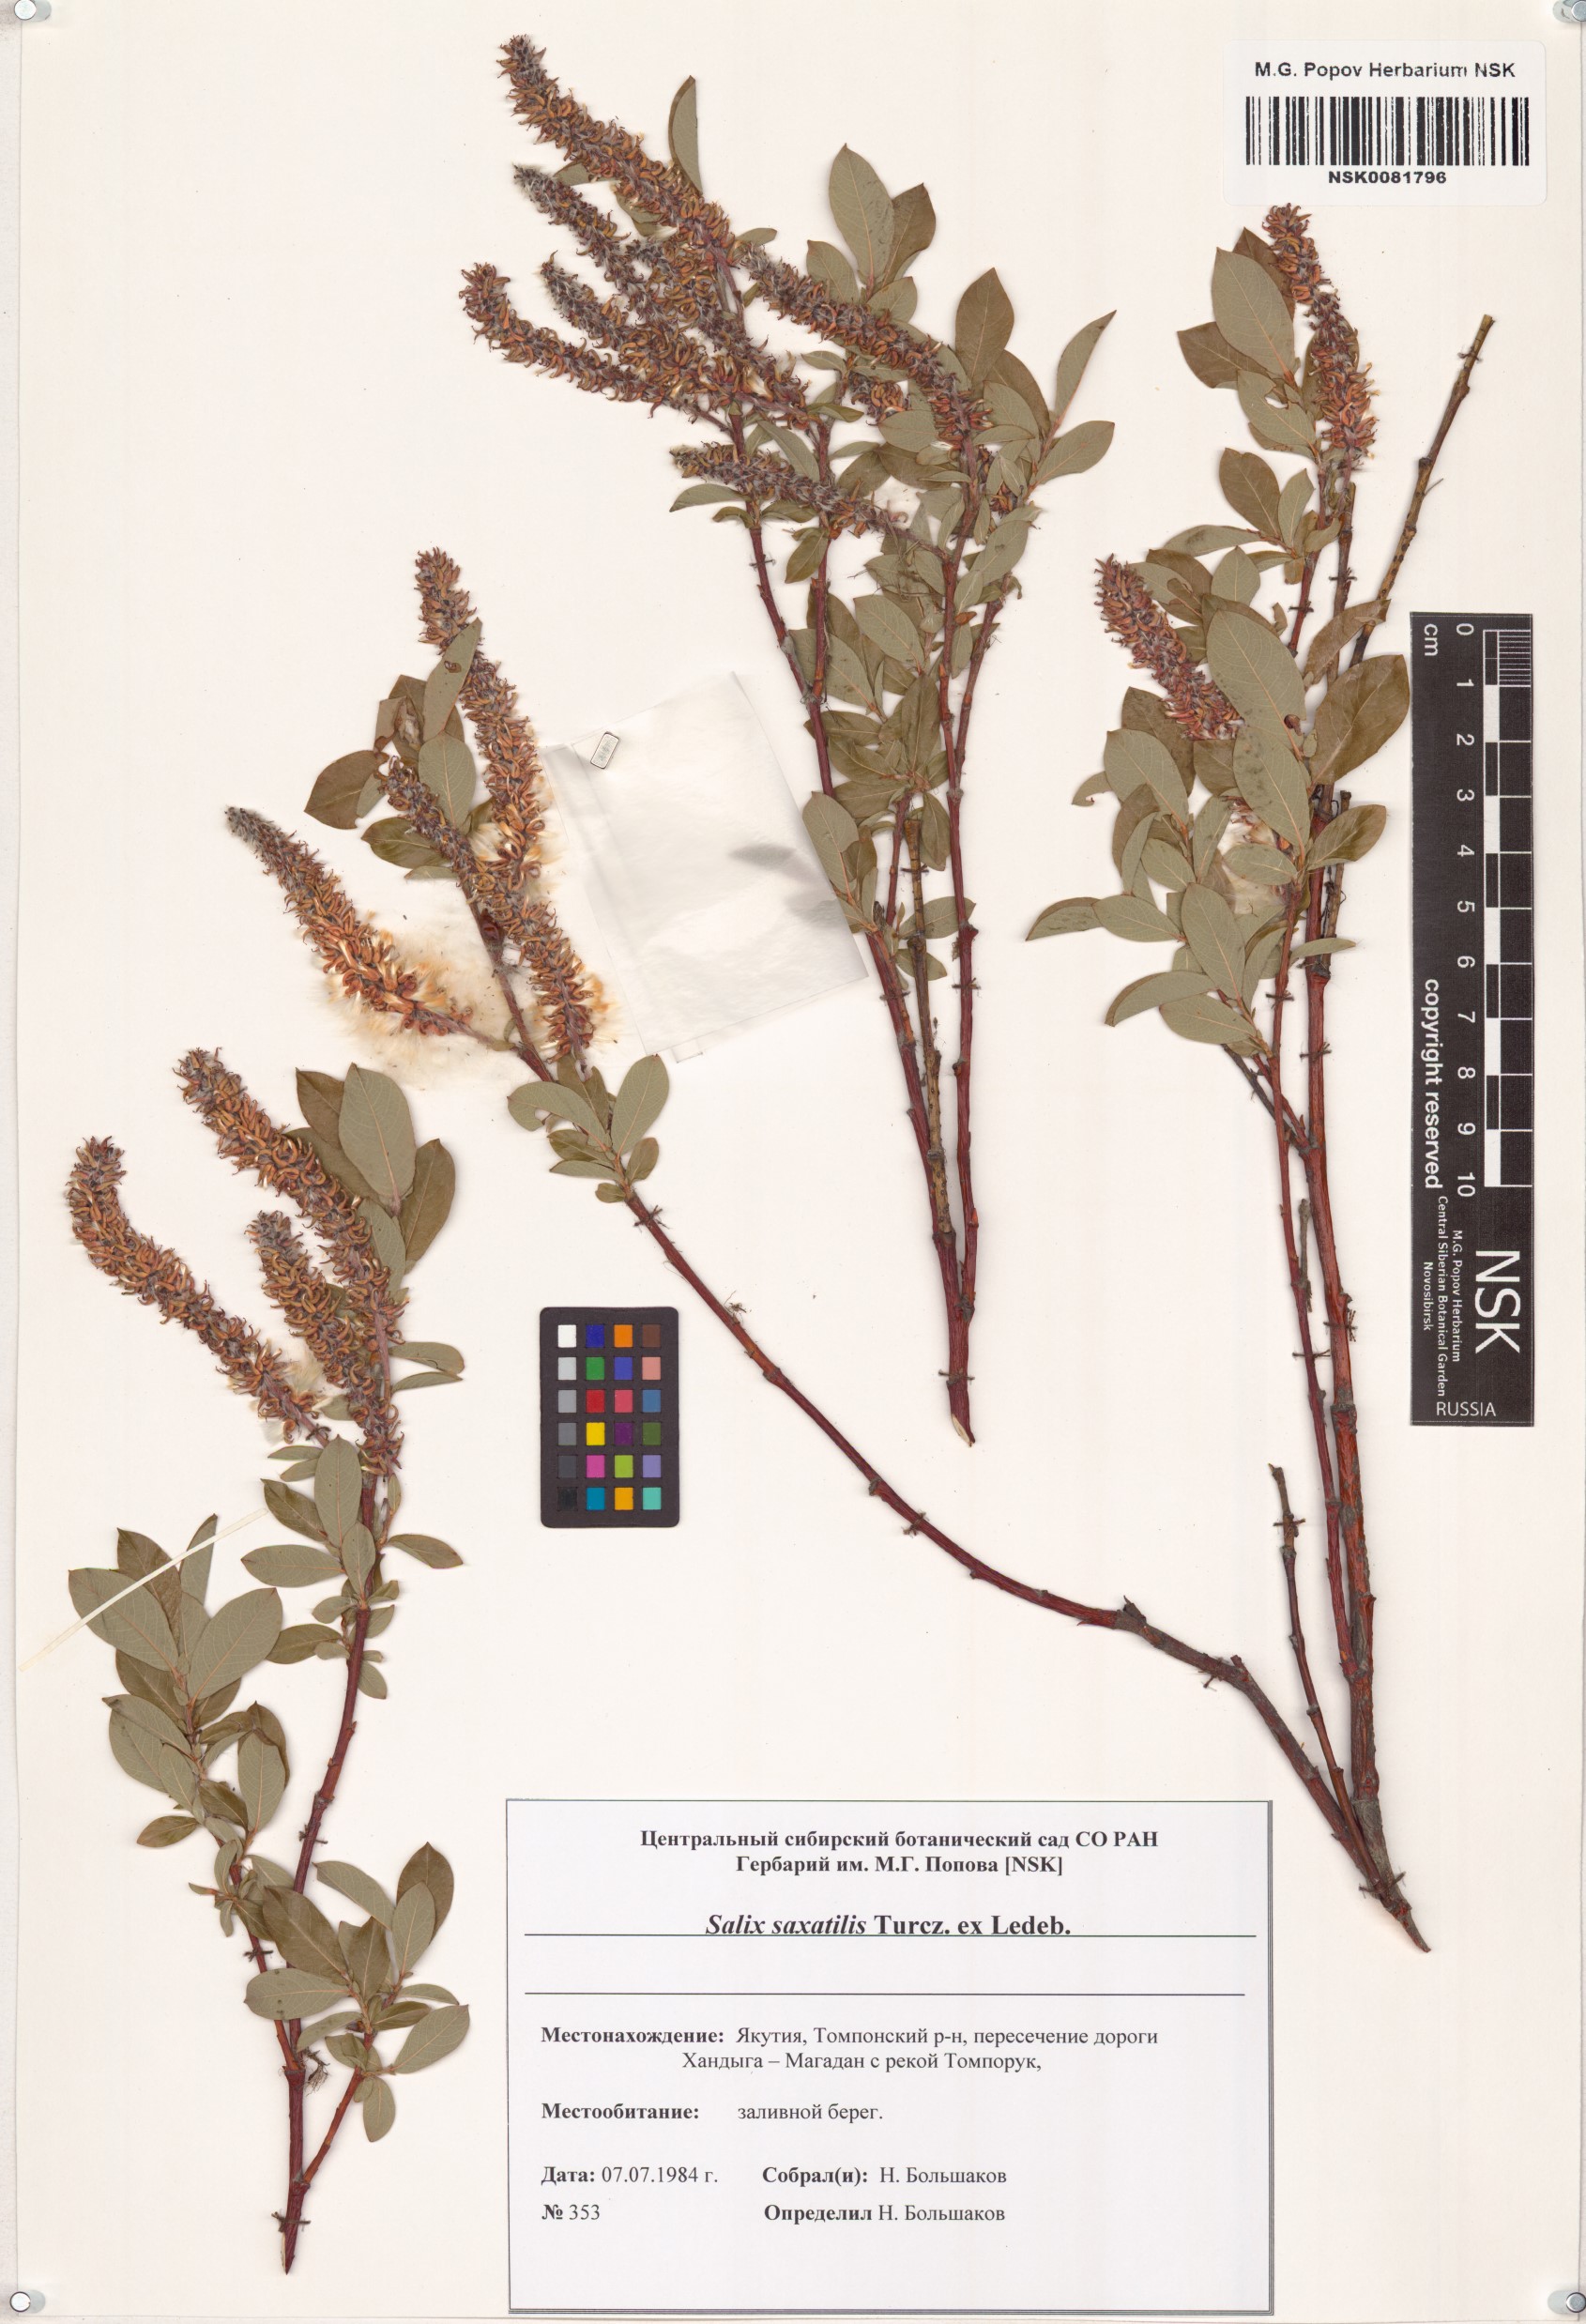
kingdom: Plantae
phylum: Tracheophyta
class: Magnoliopsida
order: Malpighiales
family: Salicaceae
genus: Salix
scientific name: Salix saxatilis
